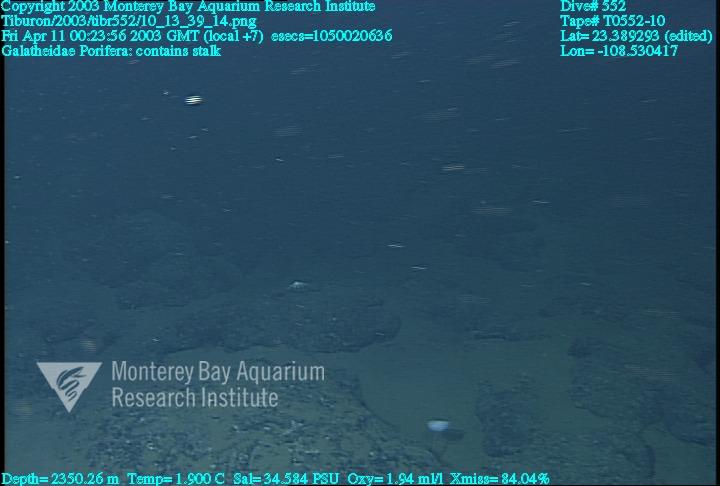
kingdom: Animalia
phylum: Porifera
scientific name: Porifera
